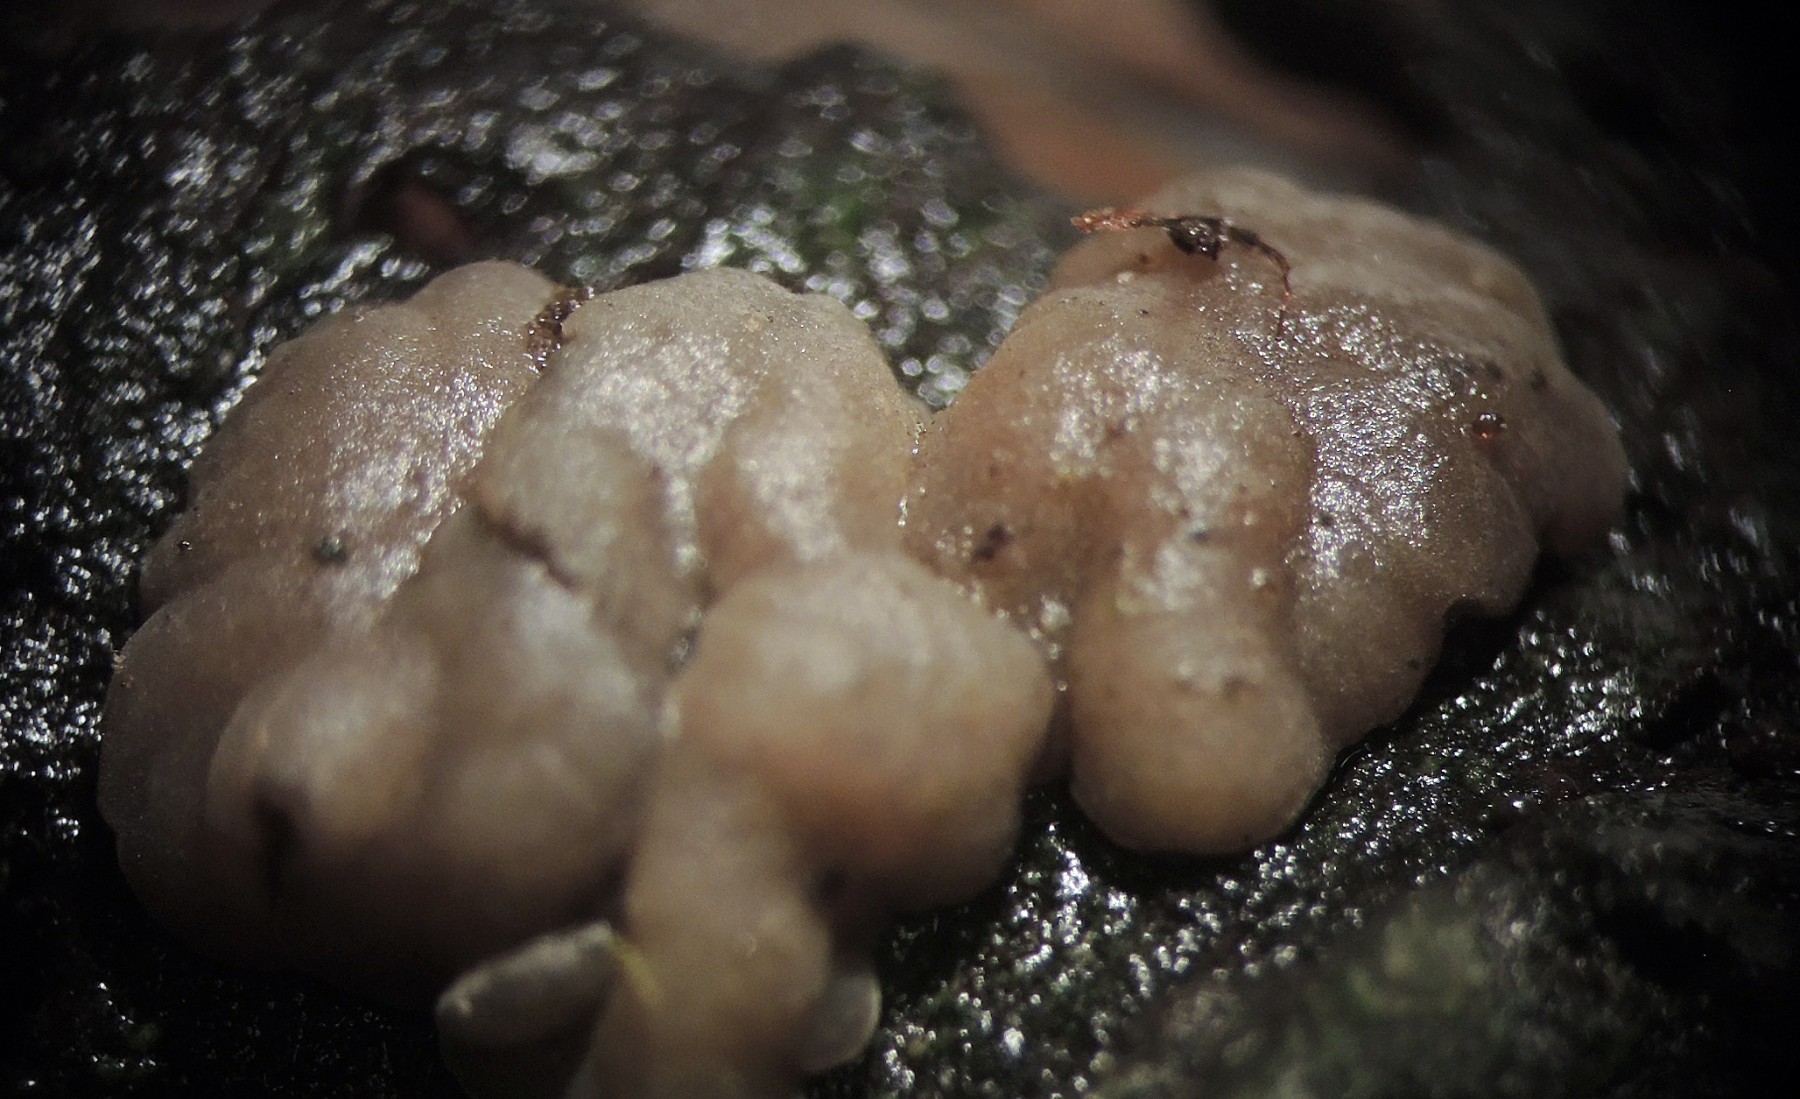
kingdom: Fungi
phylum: Ascomycota
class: Pezizomycetes
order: Pezizales
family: Ascobolaceae
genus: Thecotheus
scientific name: Thecotheus rivicola
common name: bæk-prikbæger
